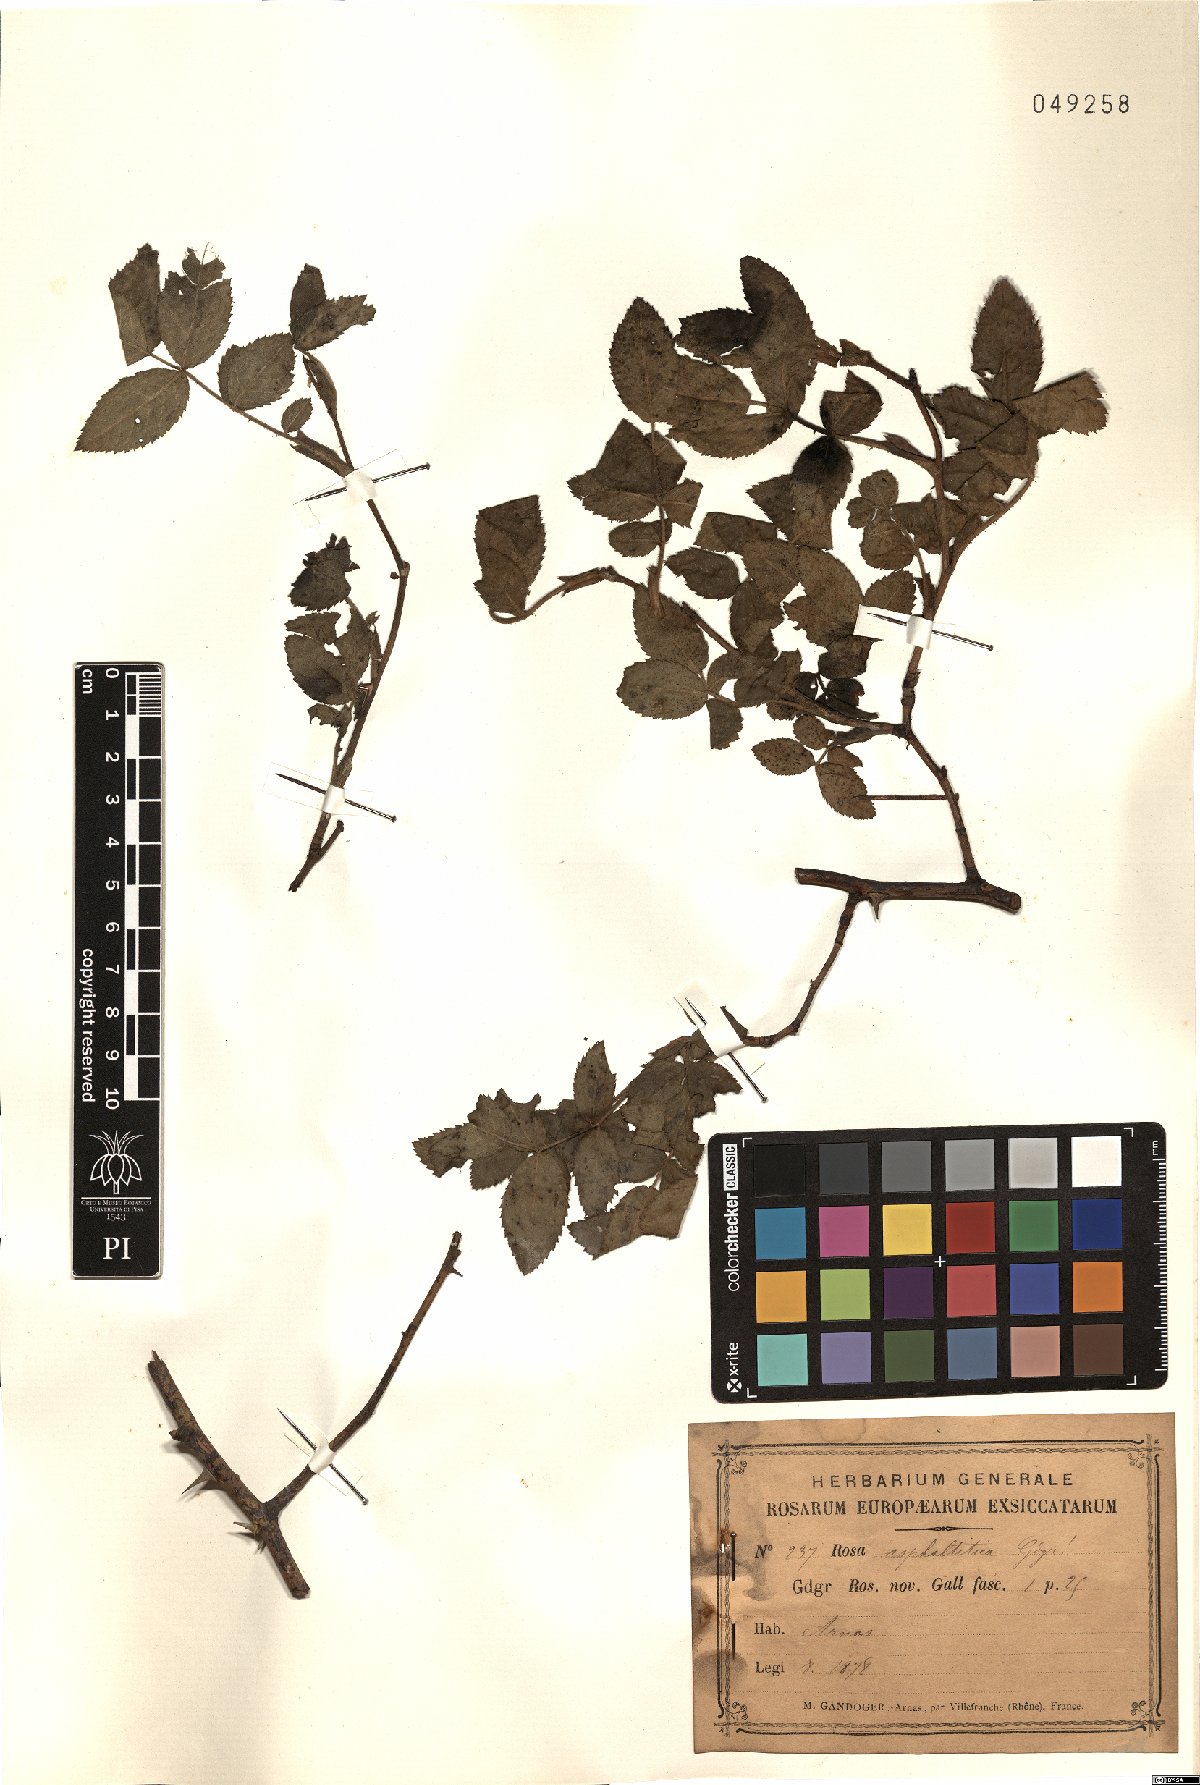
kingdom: Plantae
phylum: Tracheophyta
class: Magnoliopsida
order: Rosales
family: Rosaceae
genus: Rosa
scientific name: Rosa asphaltitica
